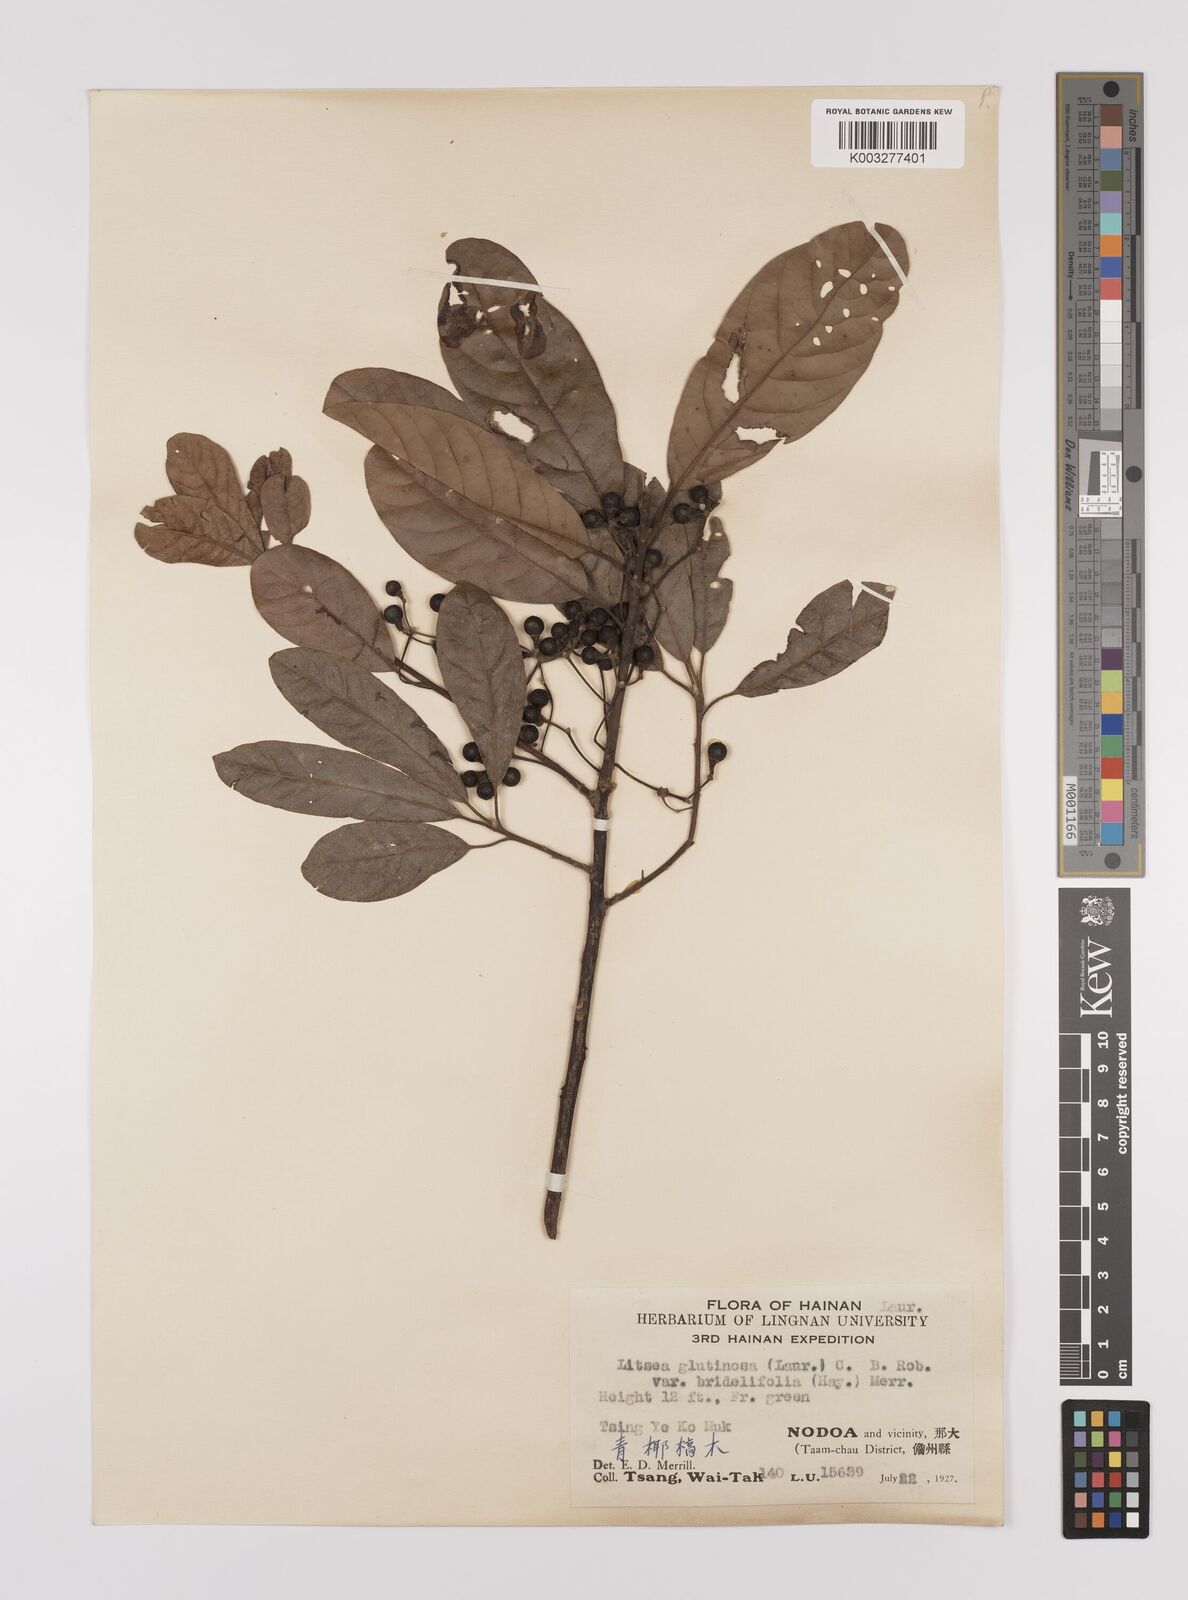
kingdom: Plantae
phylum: Tracheophyta
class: Magnoliopsida
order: Laurales
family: Lauraceae
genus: Litsea
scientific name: Litsea glutinosa
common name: Indian-laurel
